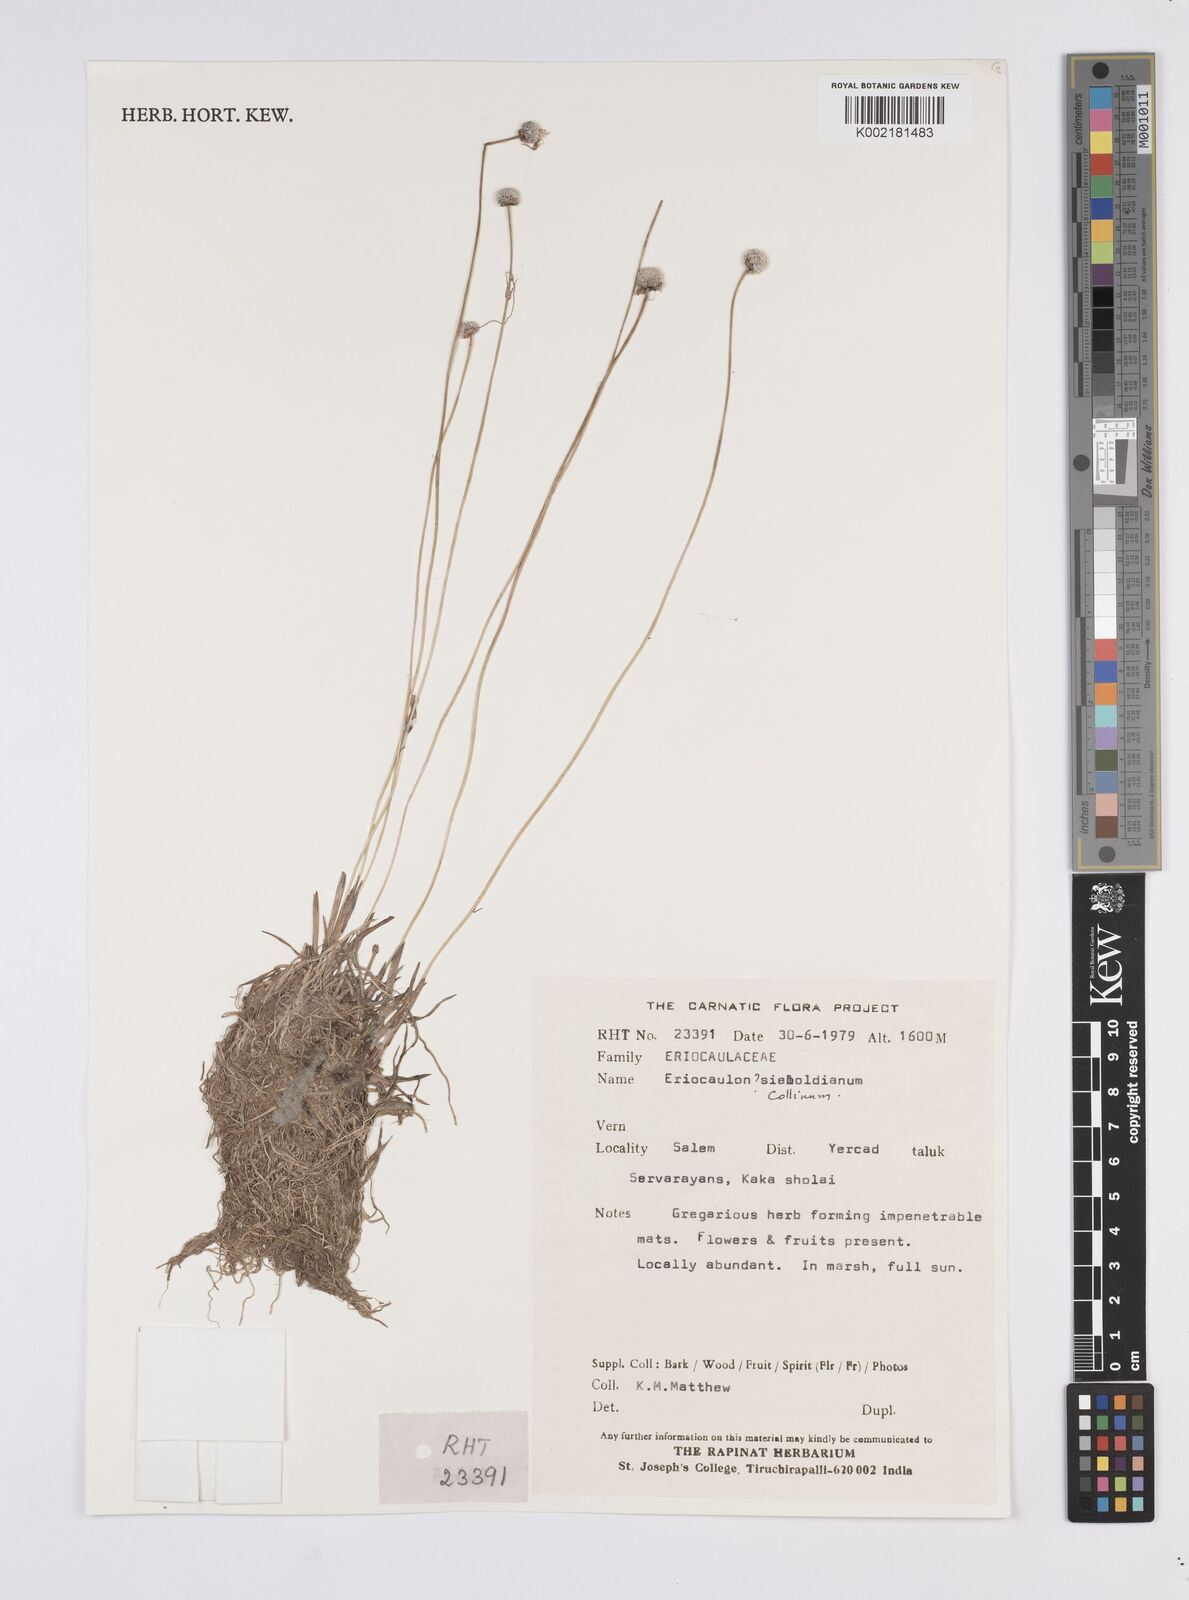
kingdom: Plantae
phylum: Tracheophyta
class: Liliopsida
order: Poales
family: Eriocaulaceae
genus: Eriocaulon
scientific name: Eriocaulon longicuspe
